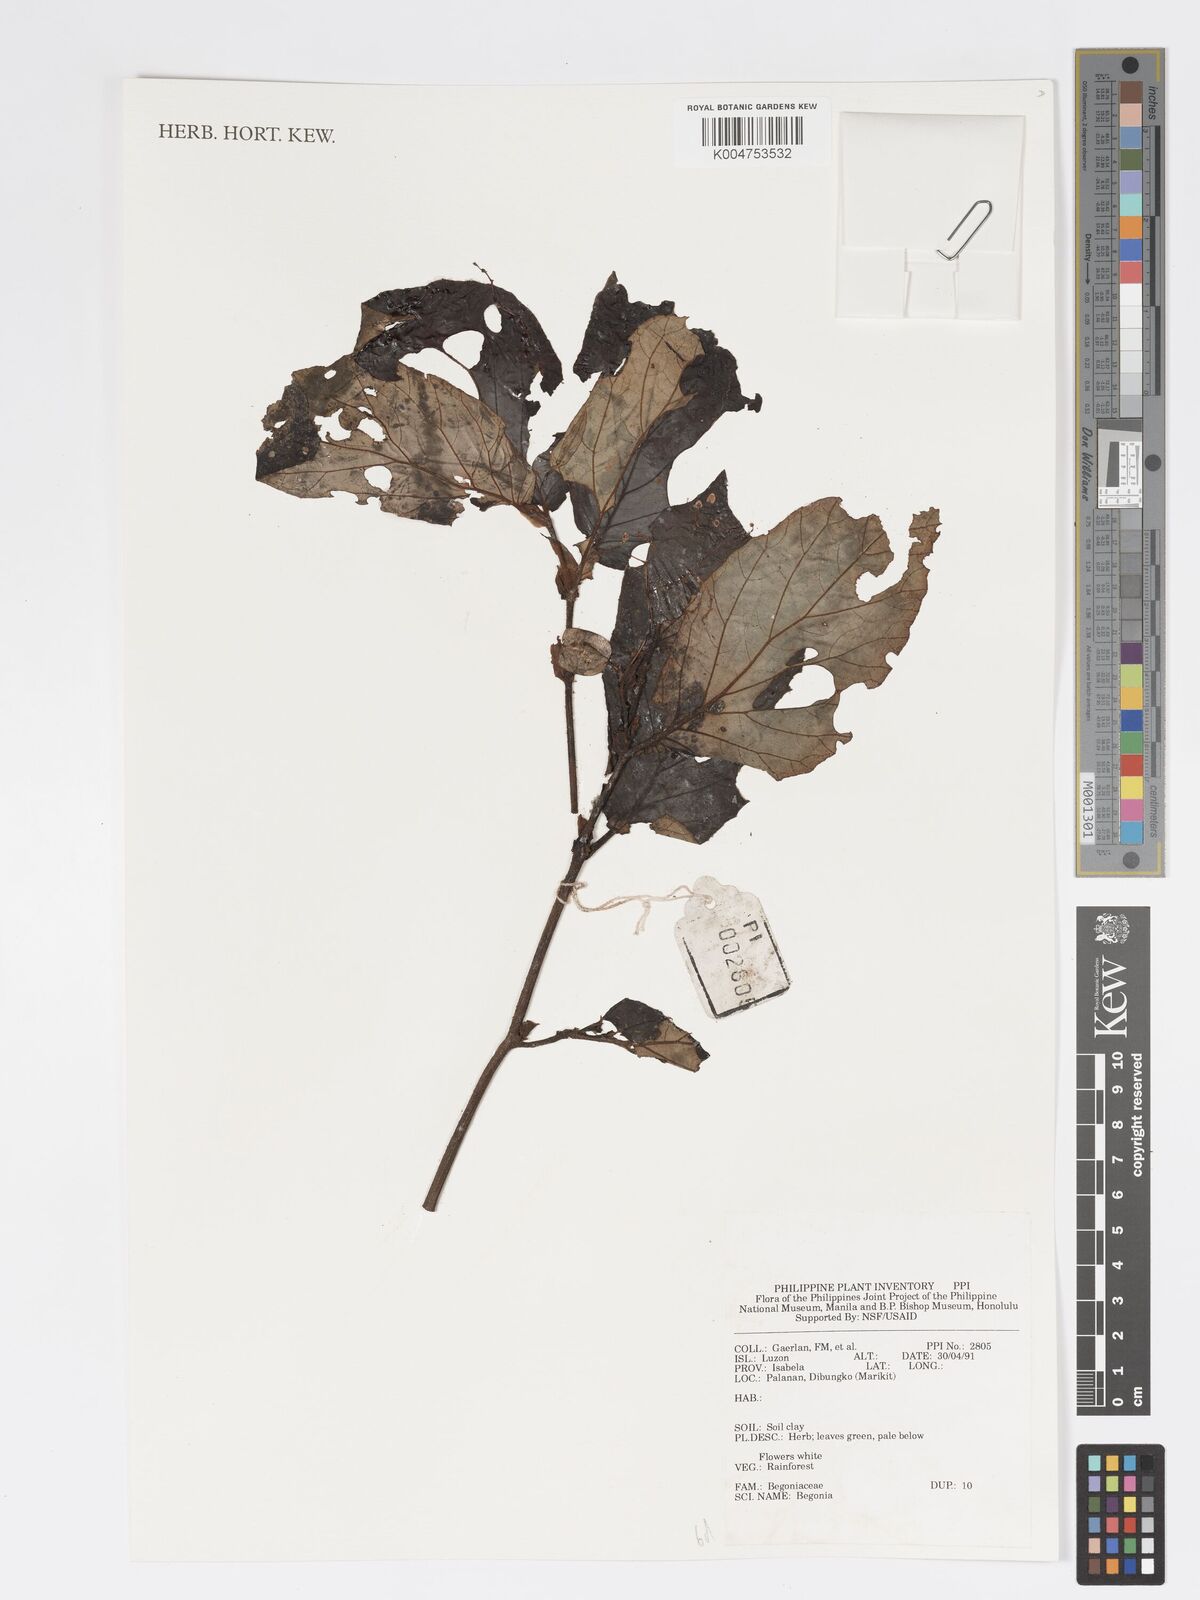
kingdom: Plantae
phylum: Tracheophyta
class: Magnoliopsida
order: Cucurbitales
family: Begoniaceae
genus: Begonia
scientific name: Begonia
